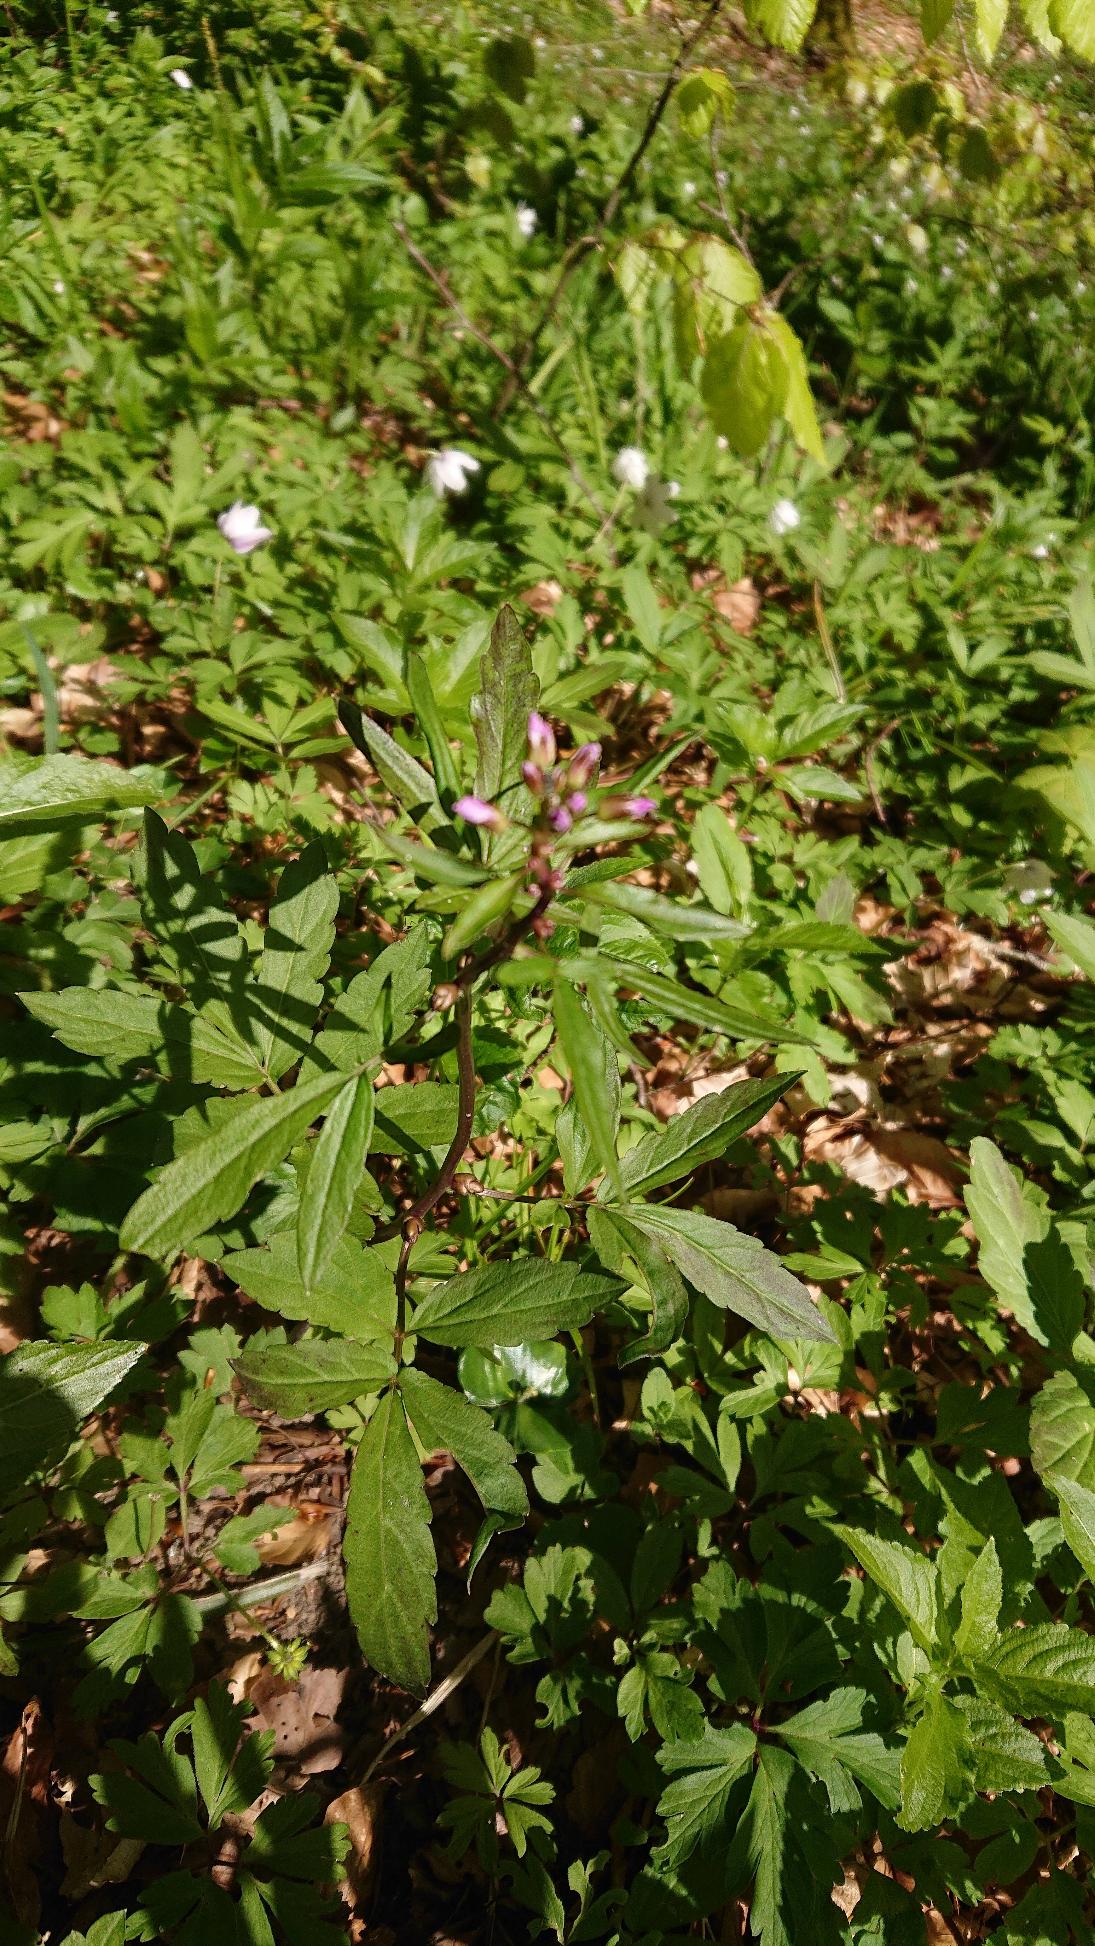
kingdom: Plantae
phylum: Tracheophyta
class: Magnoliopsida
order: Brassicales
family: Brassicaceae
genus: Cardamine
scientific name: Cardamine bulbifera
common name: Tandrod
